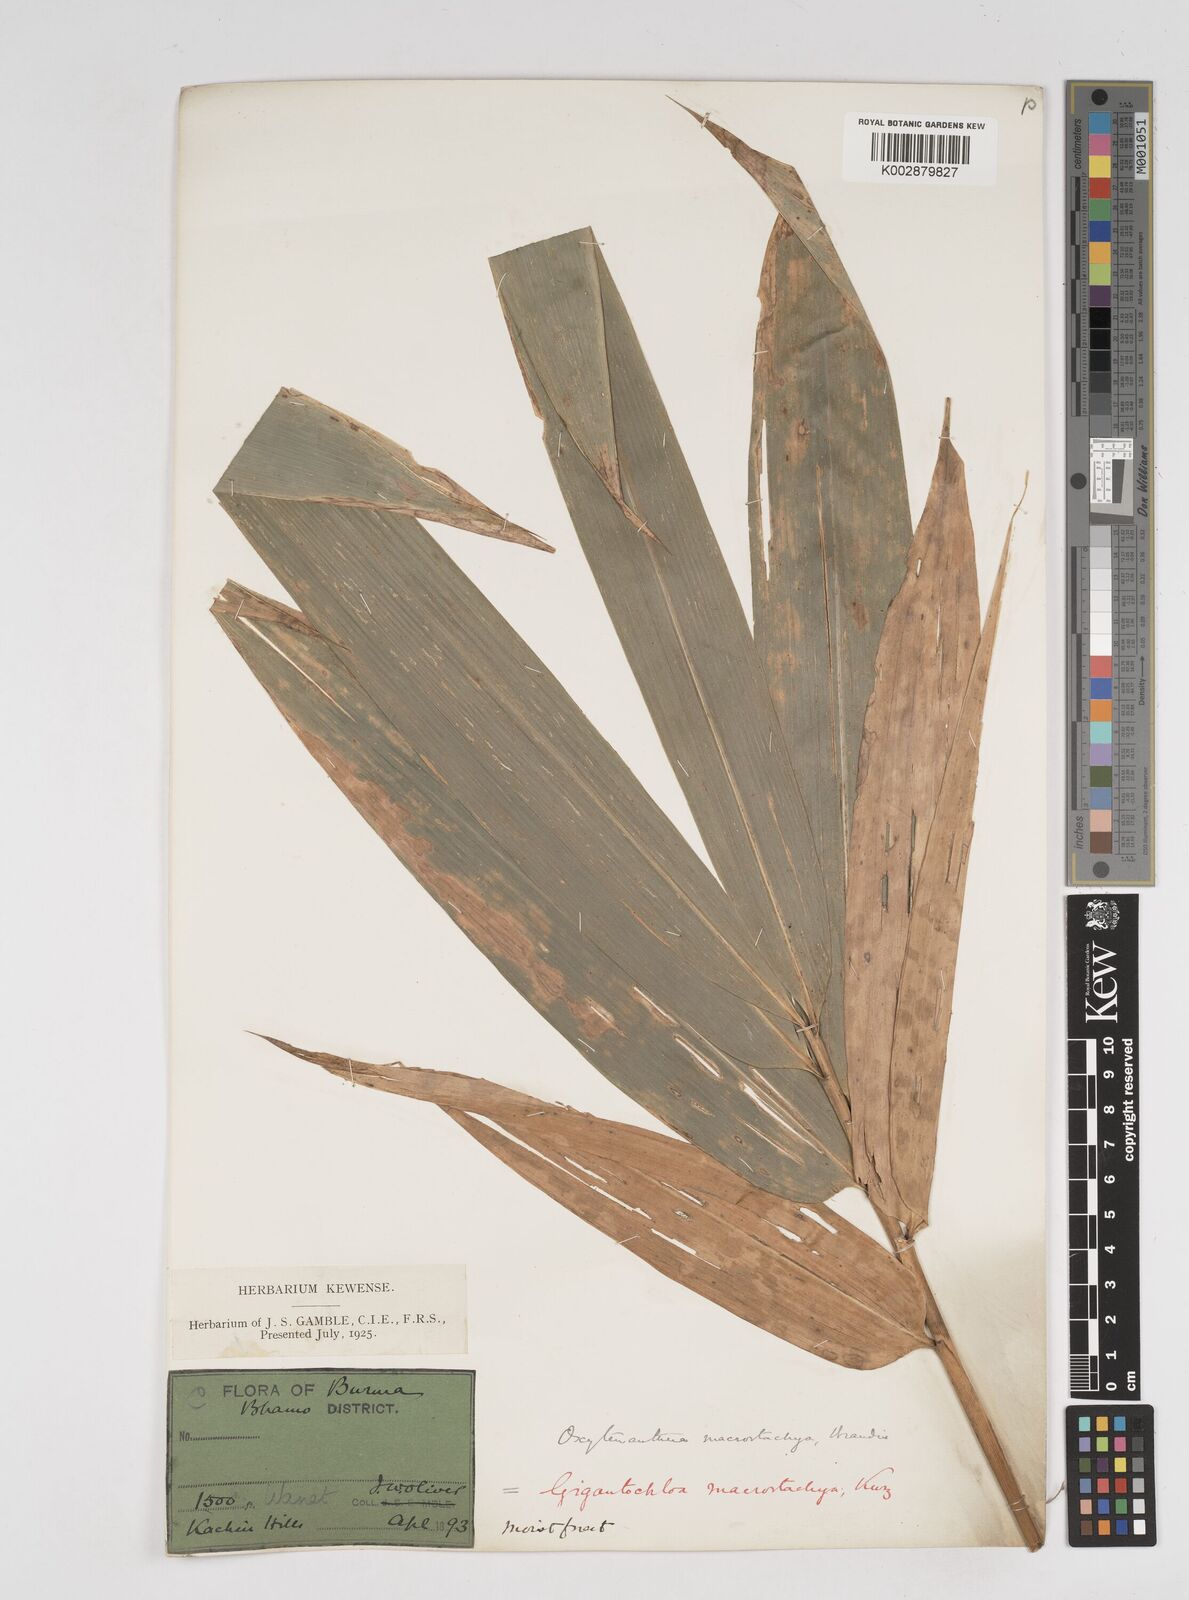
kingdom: Plantae
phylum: Tracheophyta
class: Liliopsida
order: Poales
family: Poaceae
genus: Gigantochloa
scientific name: Gigantochloa macrostachya
